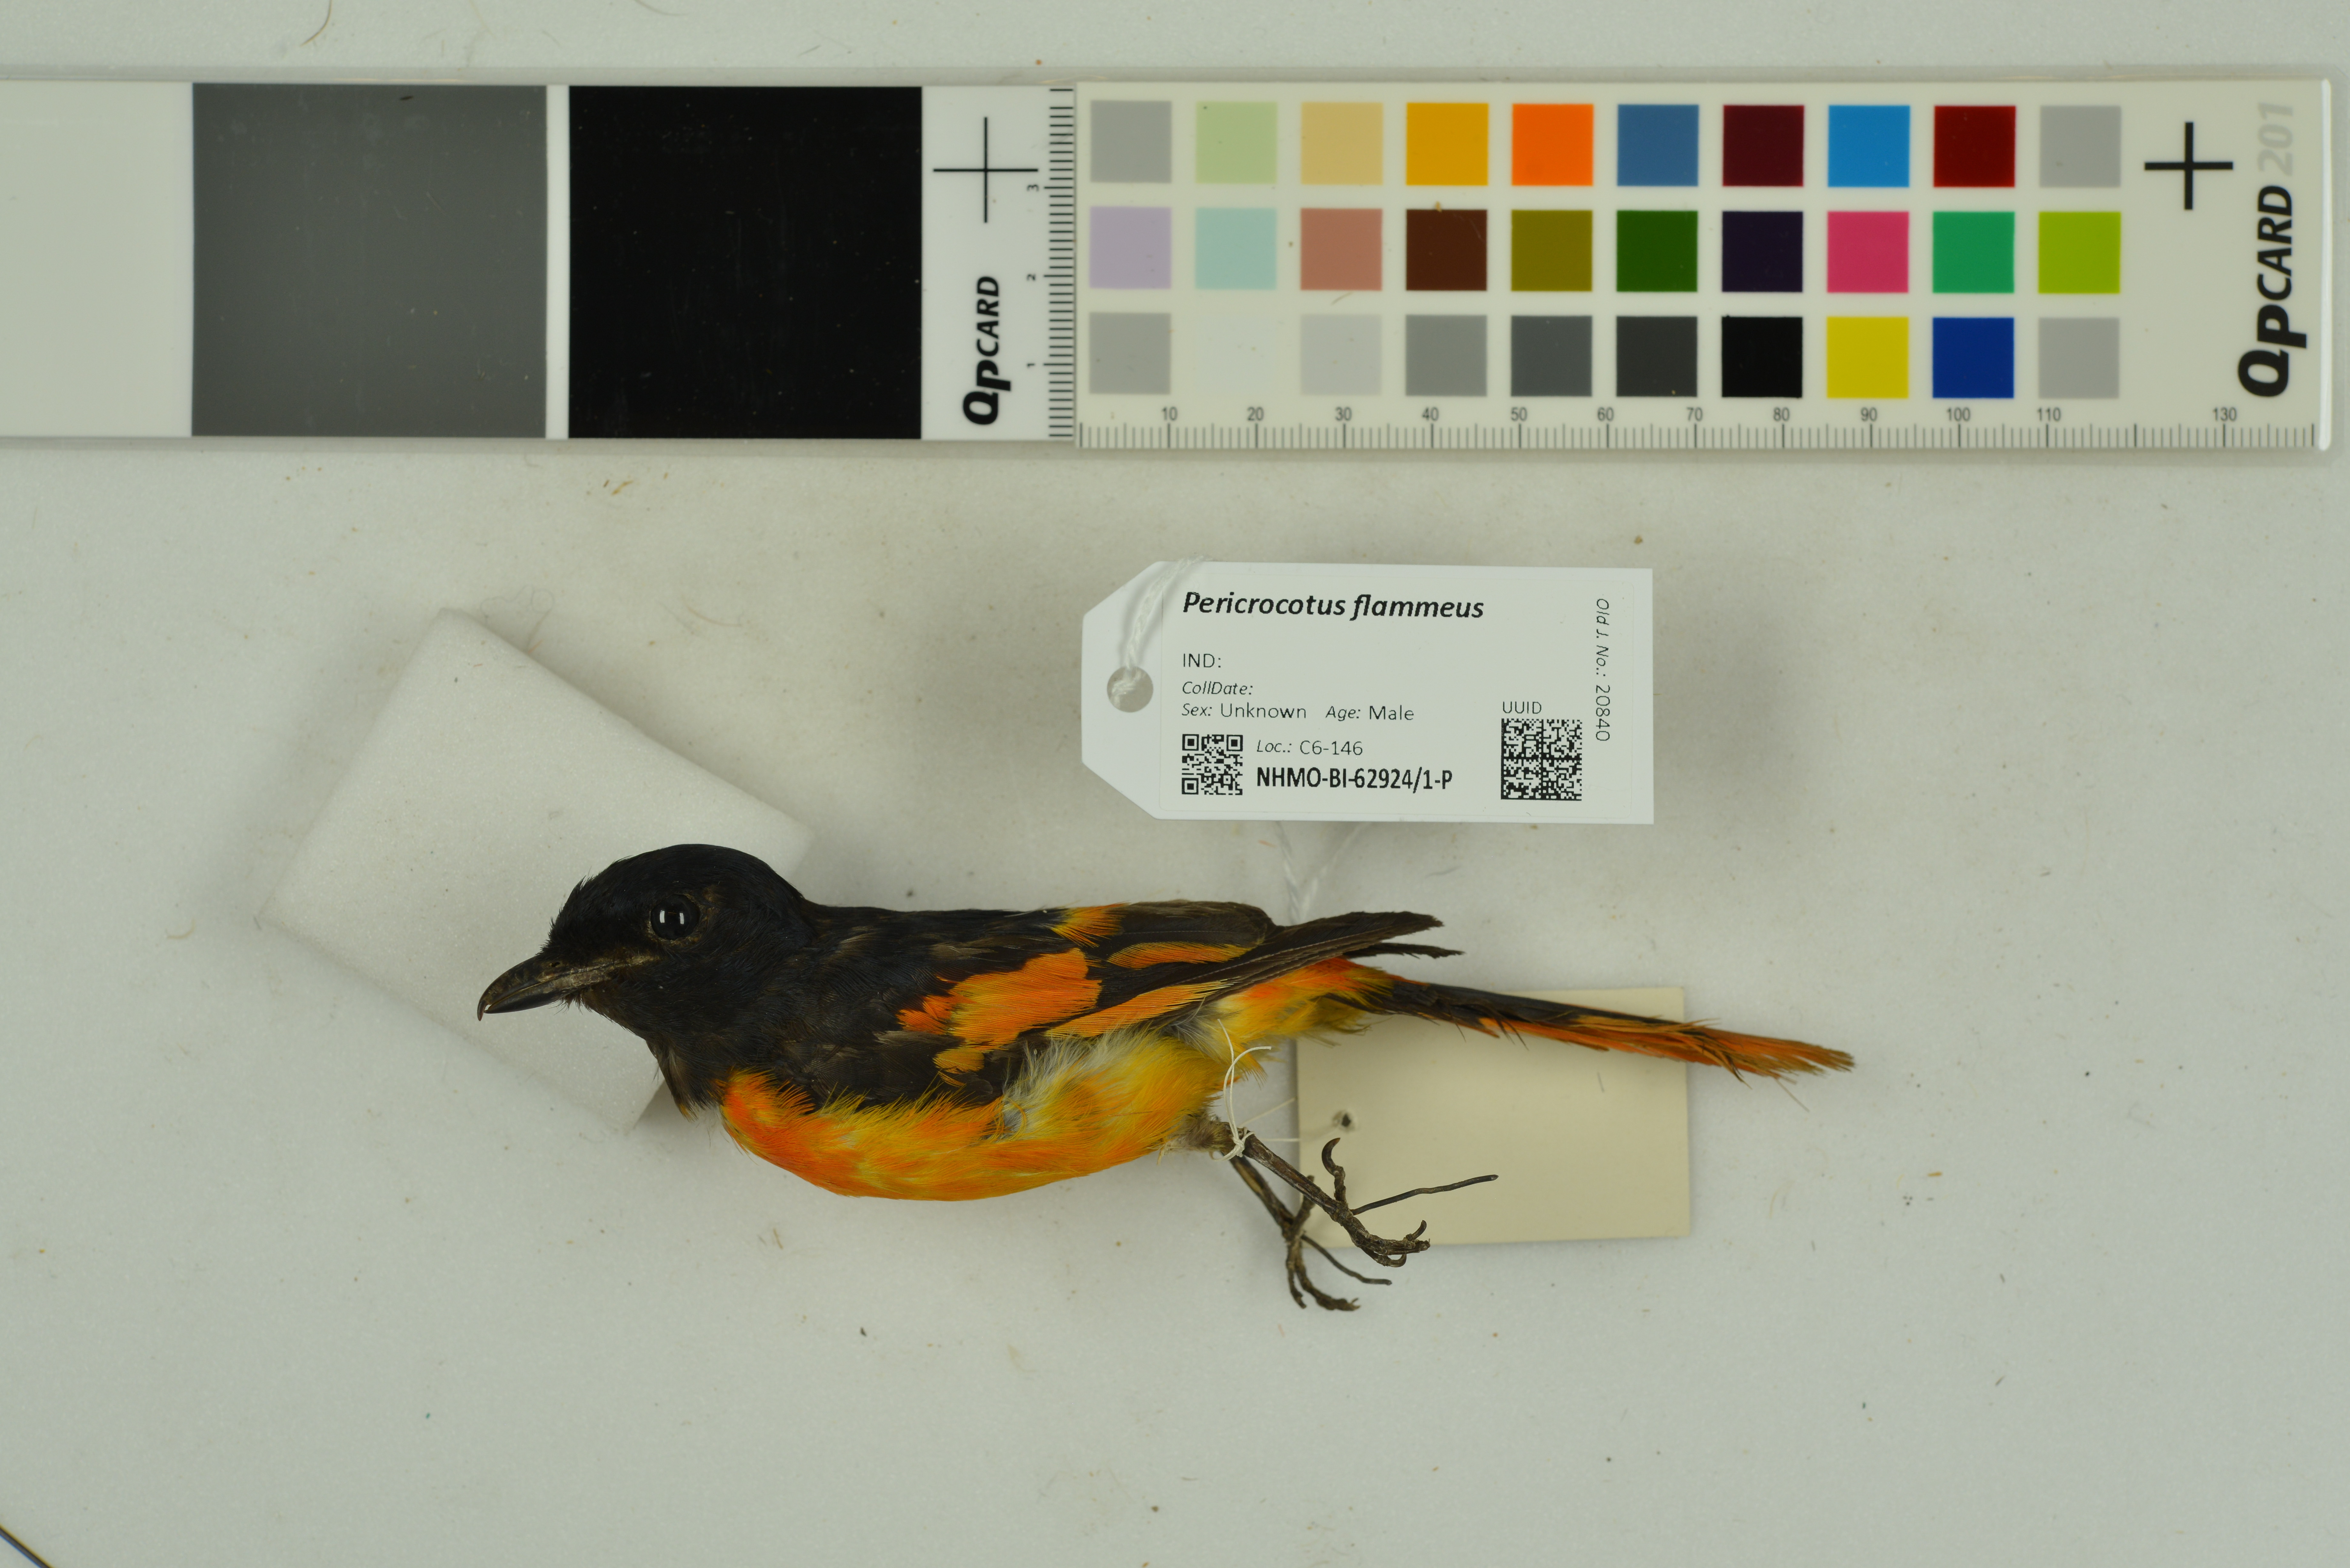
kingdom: Animalia
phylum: Chordata
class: Aves
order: Passeriformes
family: Campephagidae
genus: Pericrocotus
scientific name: Pericrocotus flammeus
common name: Orange minivet
